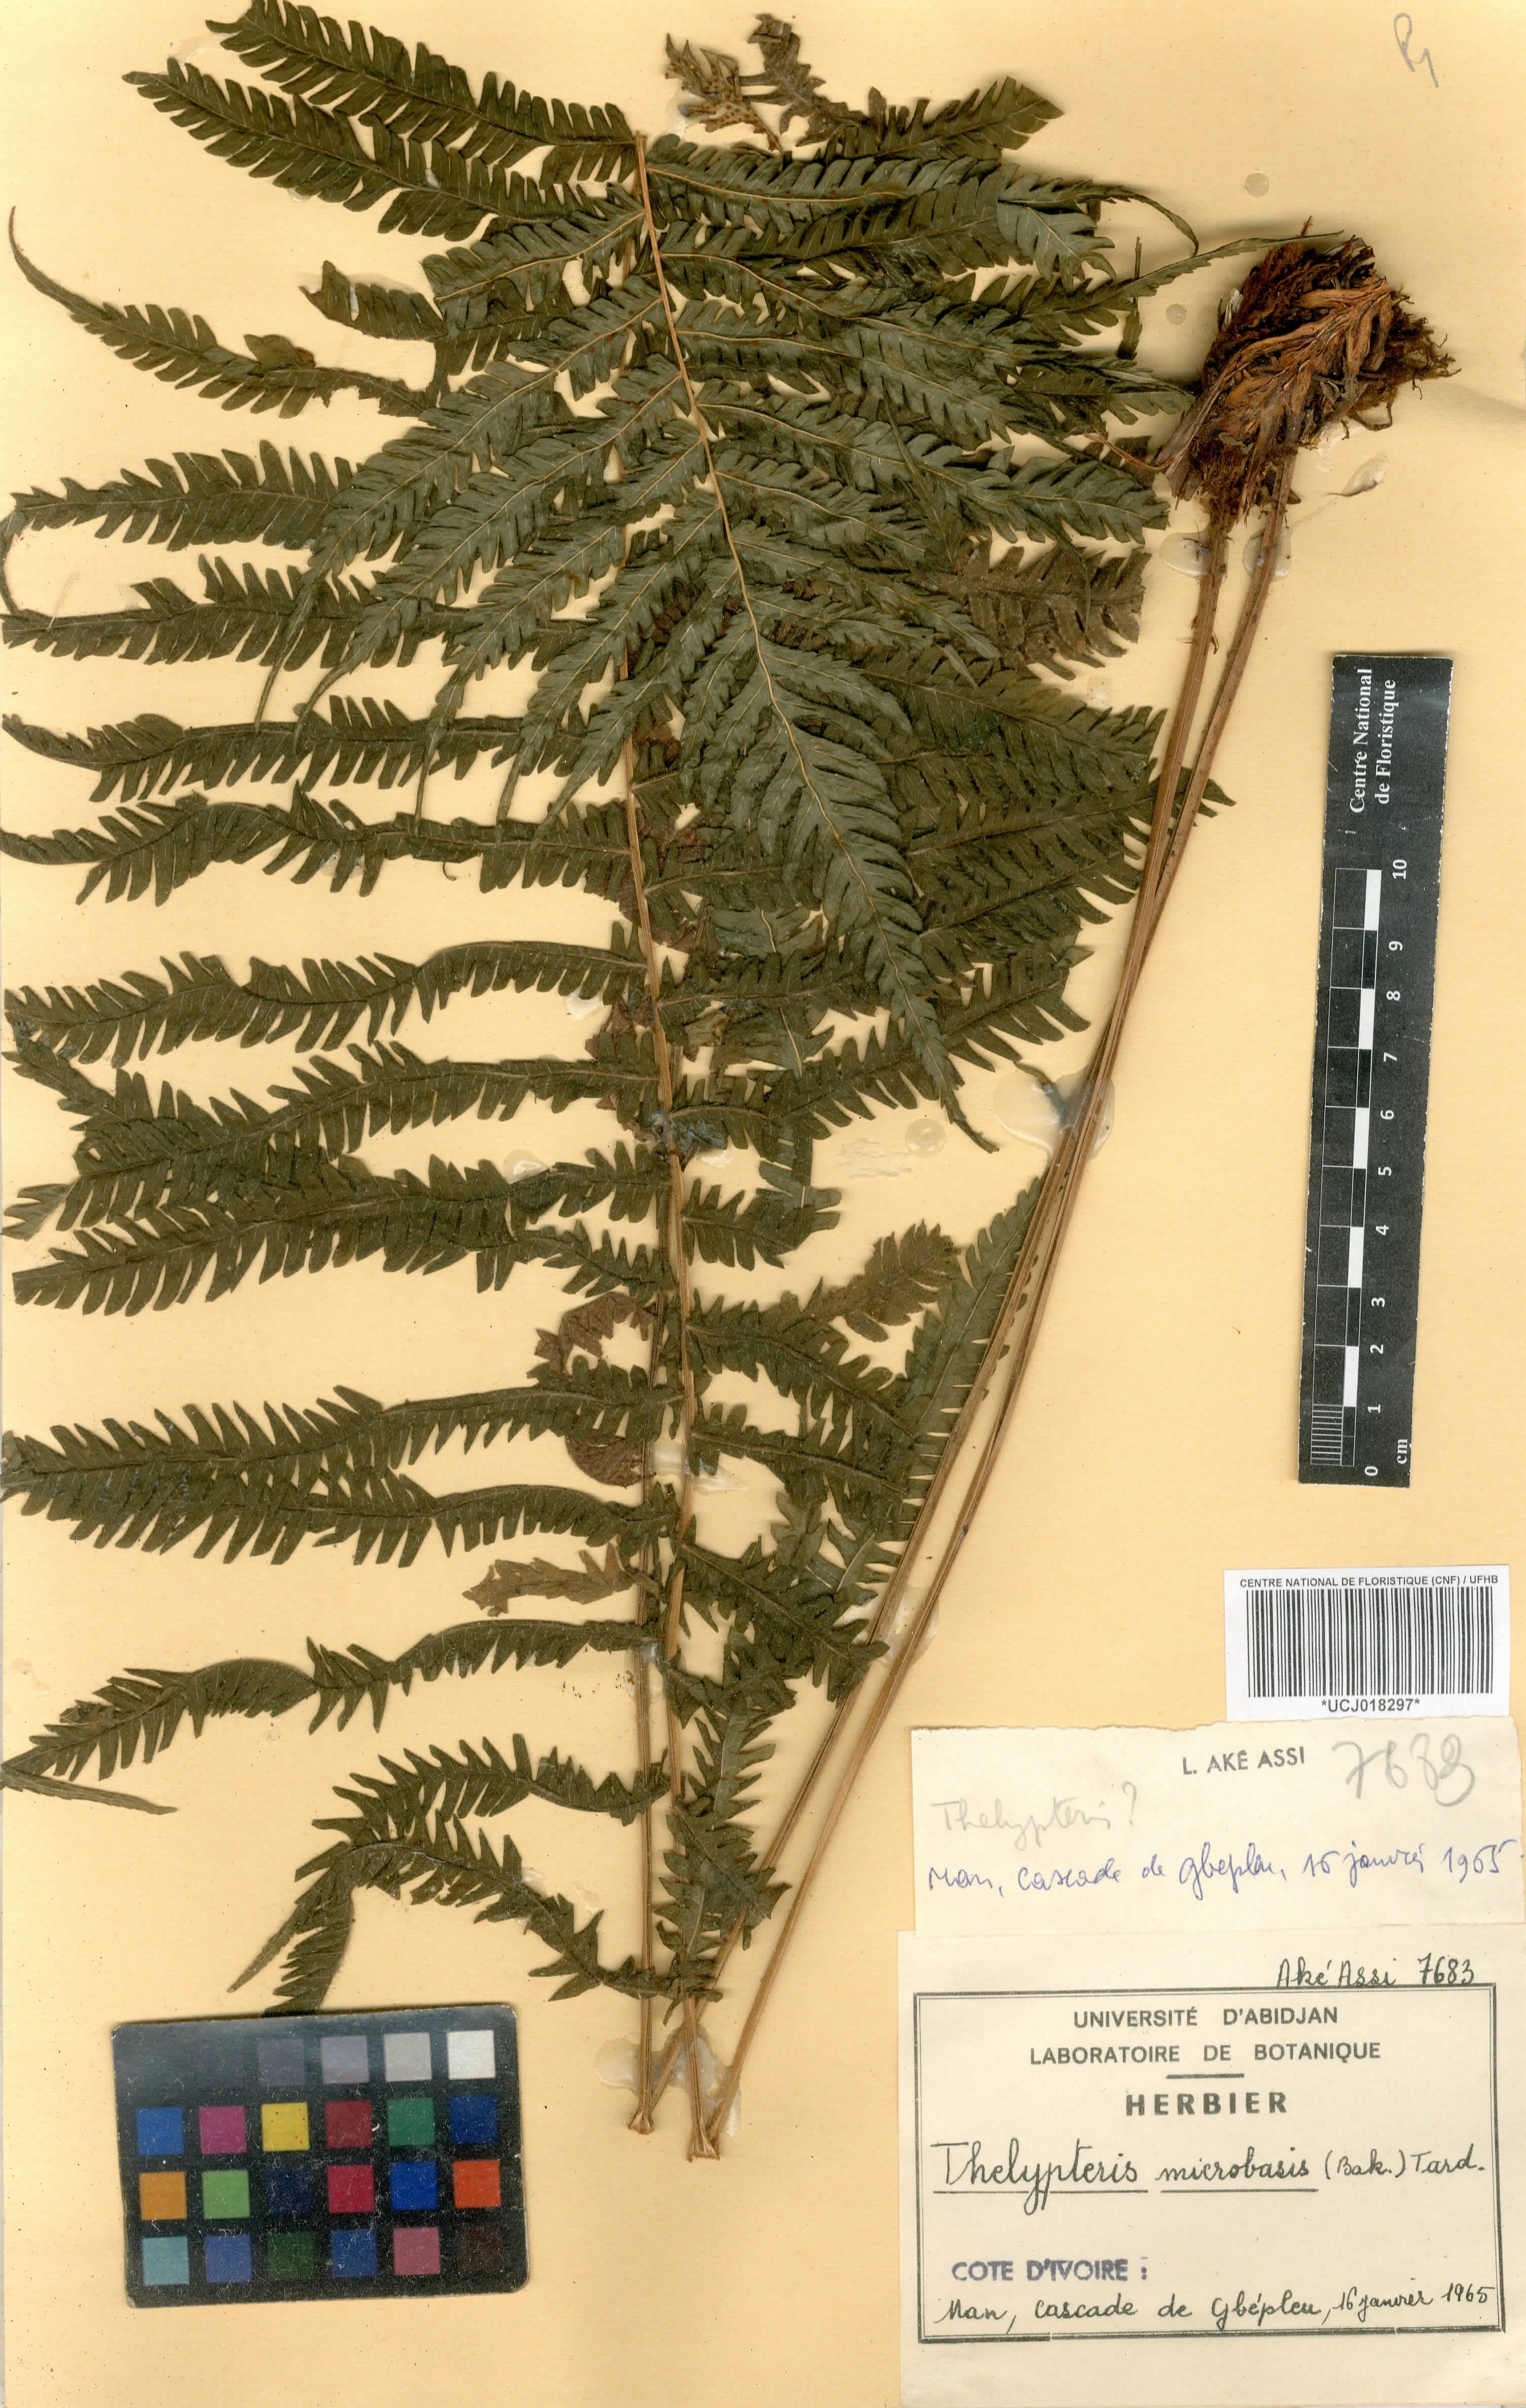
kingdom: Plantae
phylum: Tracheophyta
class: Polypodiopsida
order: Polypodiales
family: Thelypteridaceae
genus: Christella
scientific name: Christella microbasis
